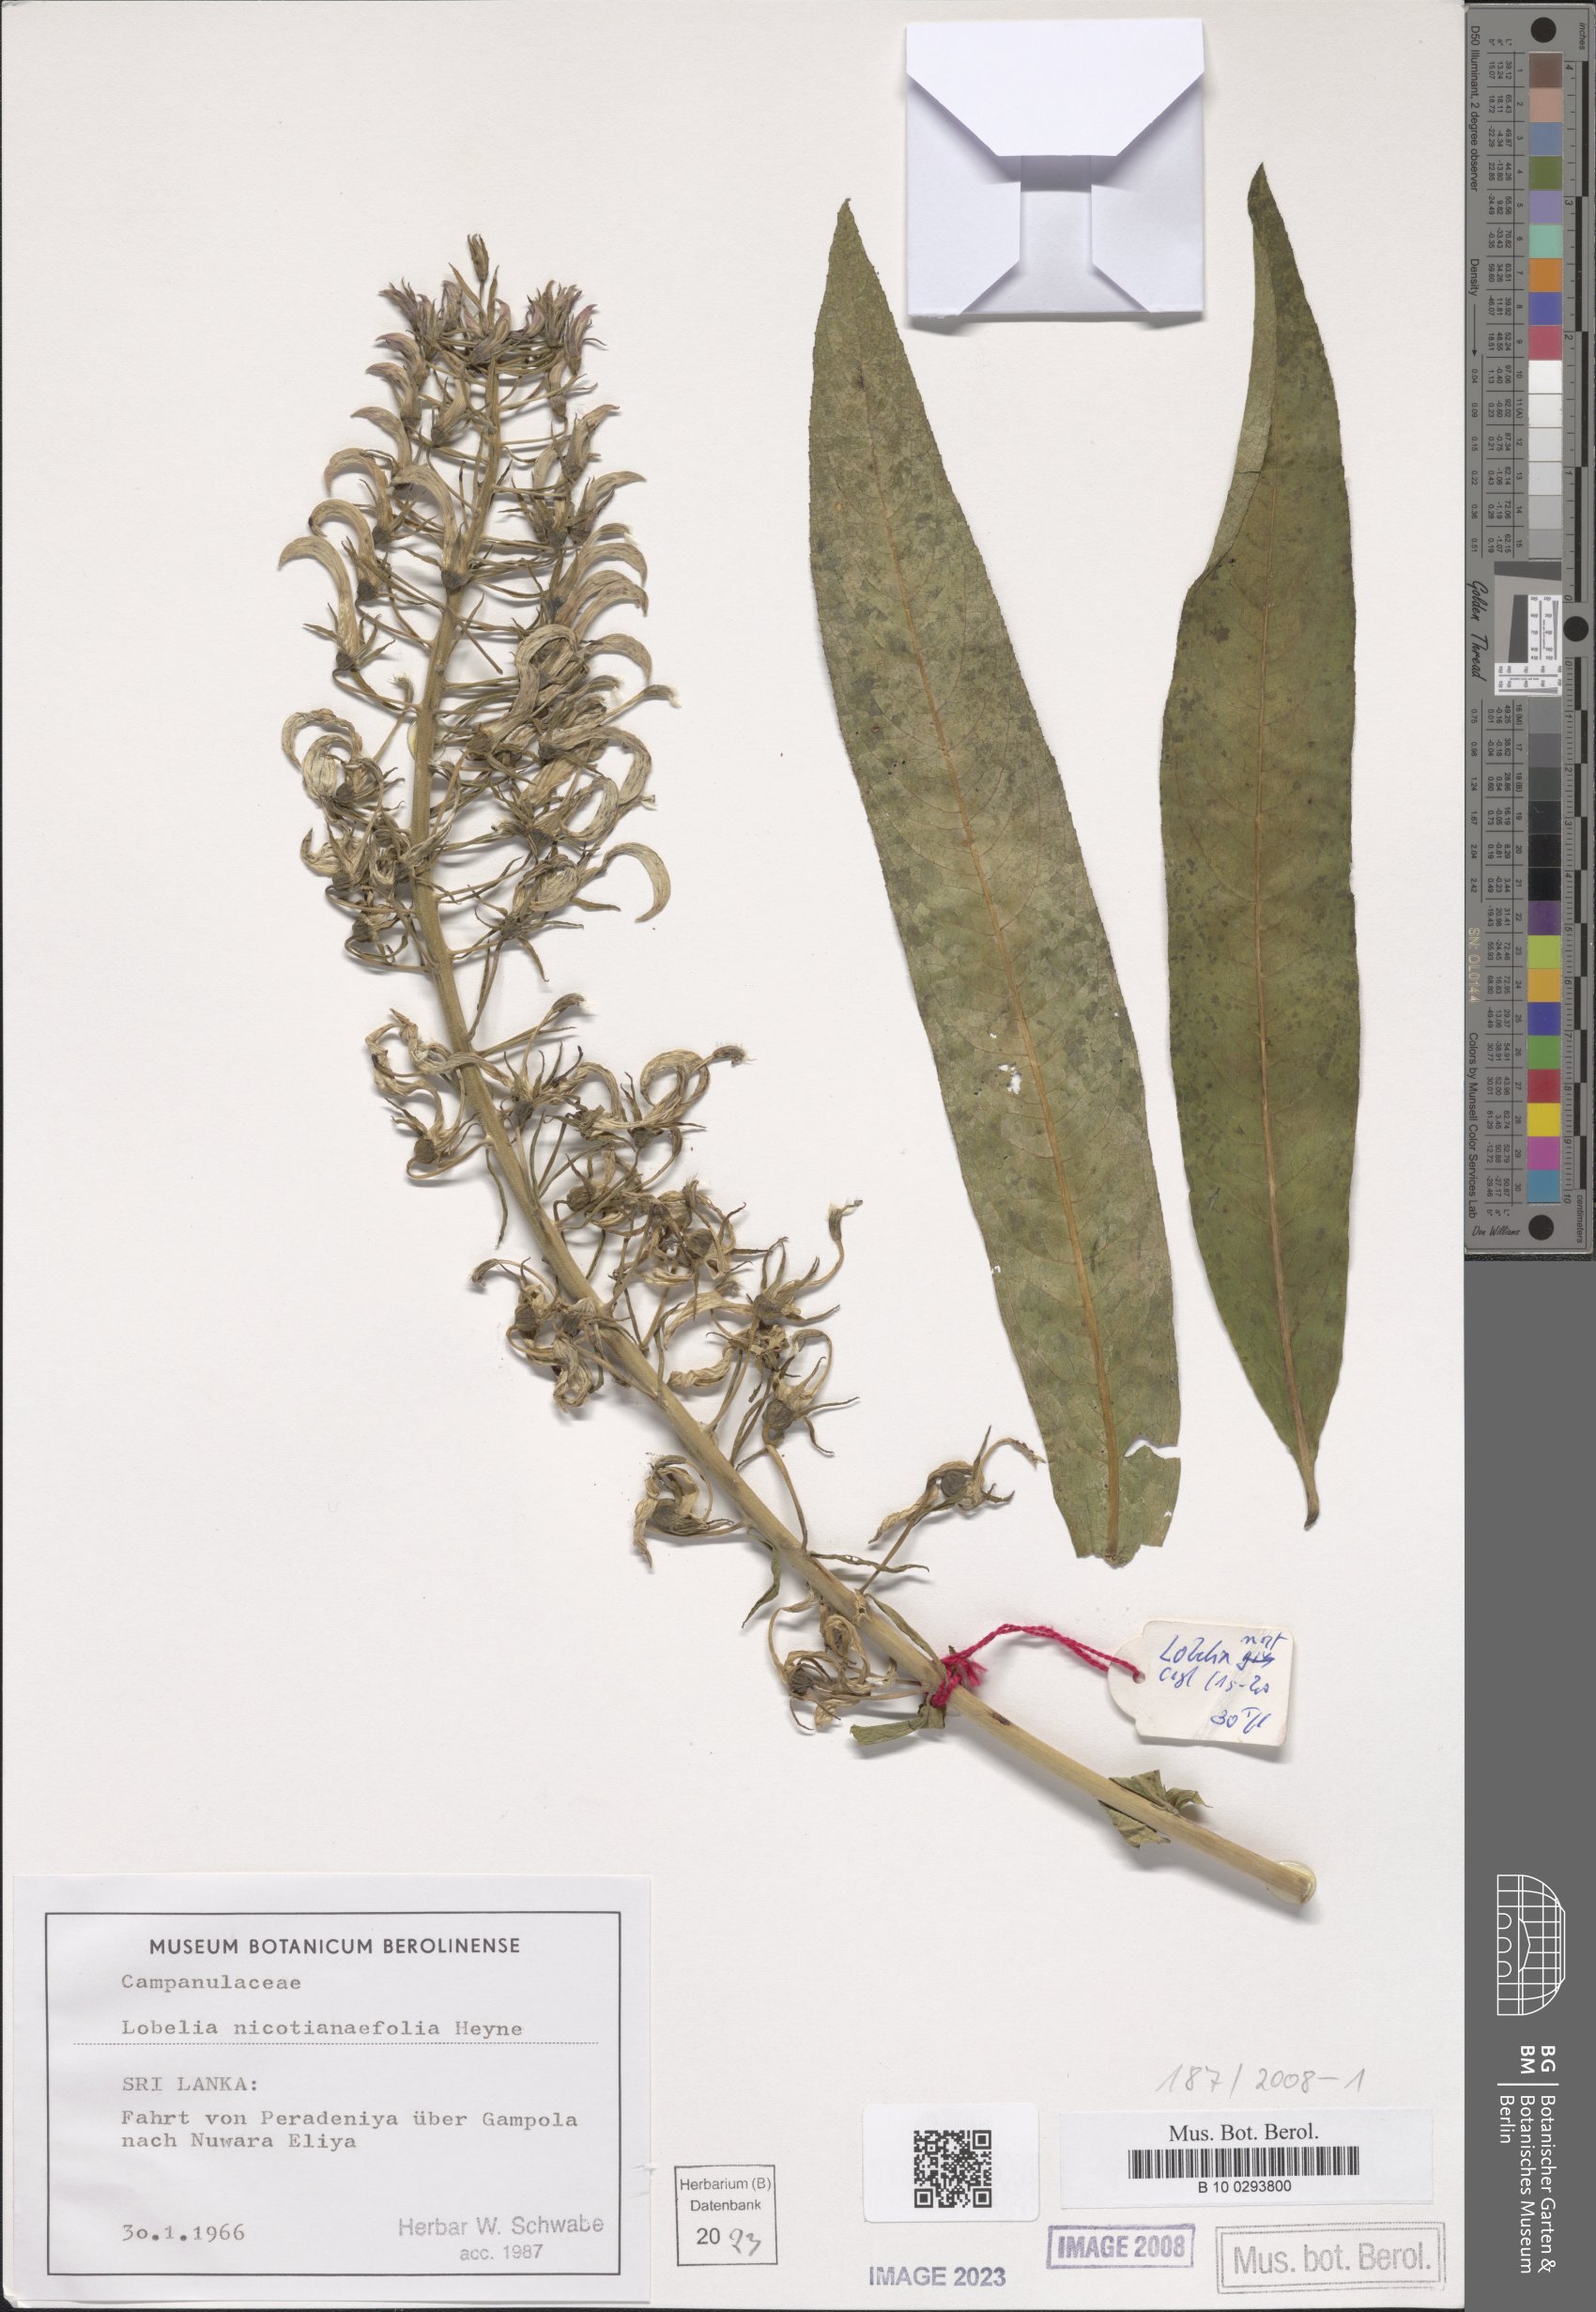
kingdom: Plantae
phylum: Tracheophyta
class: Magnoliopsida
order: Asterales
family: Campanulaceae
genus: Lobelia
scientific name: Lobelia nicotianifolia
